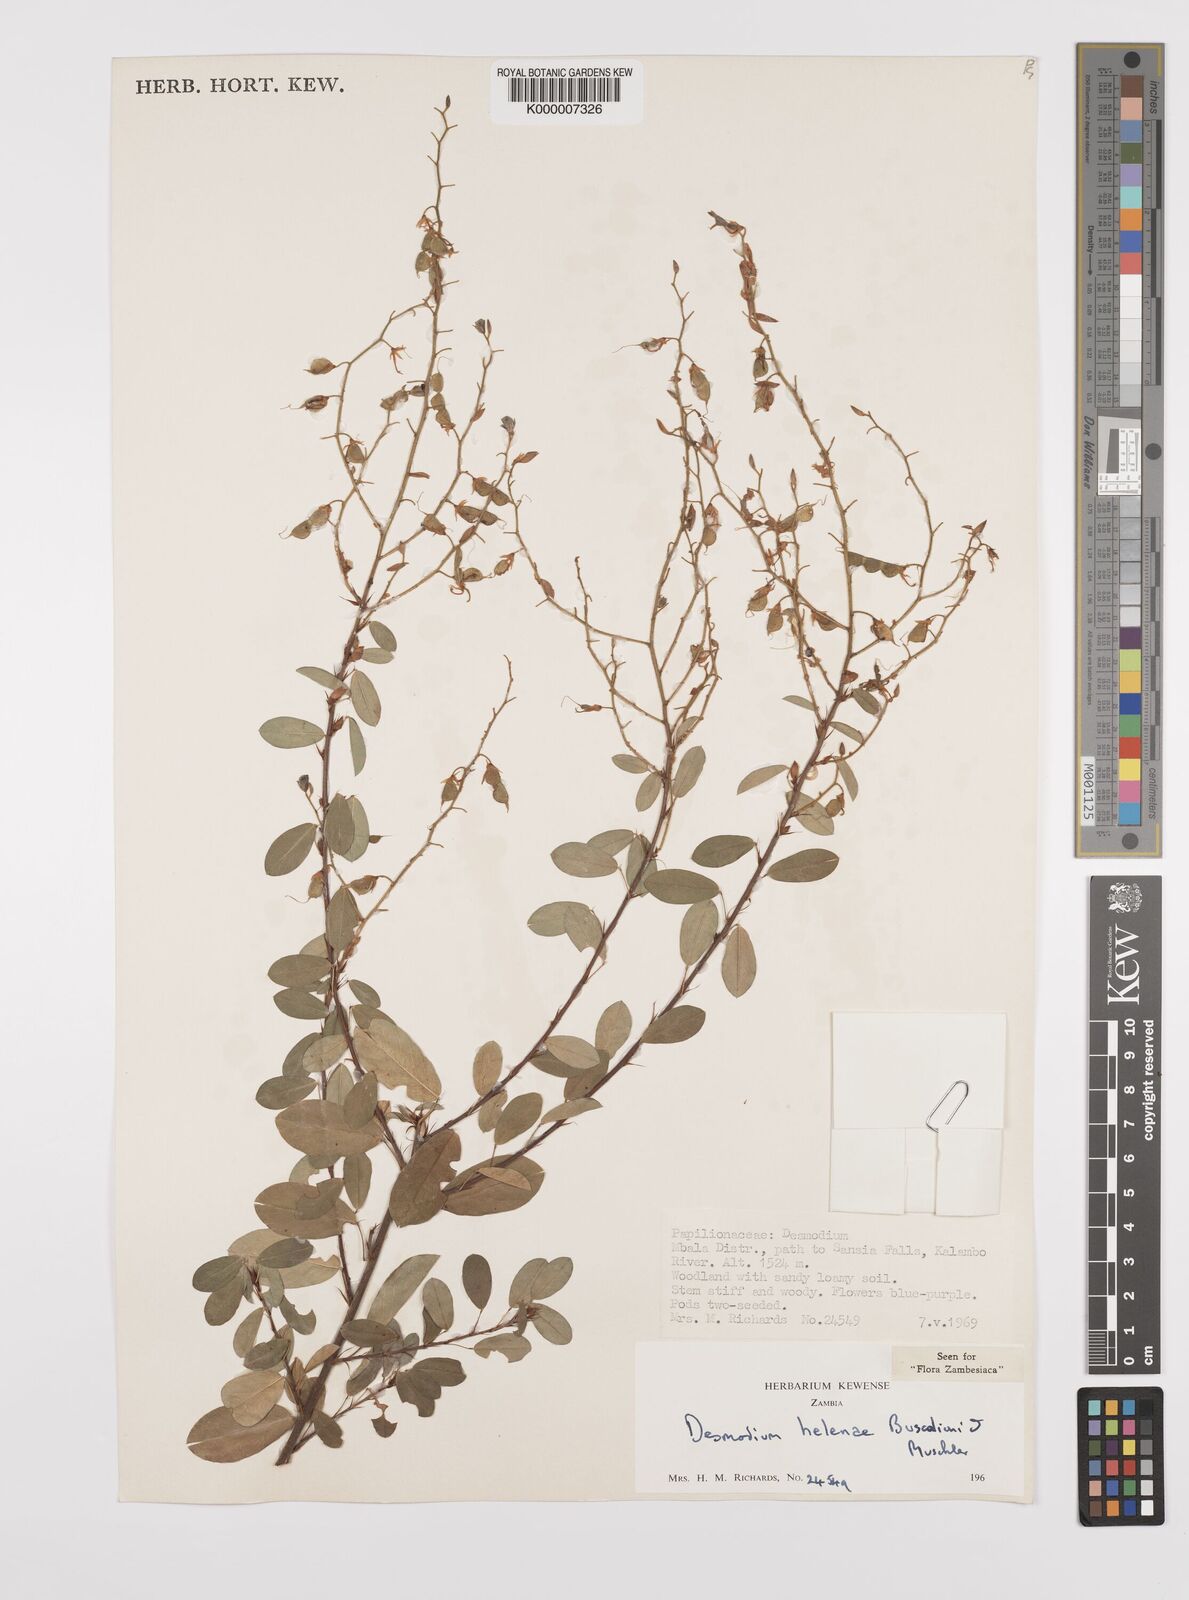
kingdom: Plantae
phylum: Tracheophyta
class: Magnoliopsida
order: Fabales
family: Fabaceae
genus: Grona
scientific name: Grona helenae
